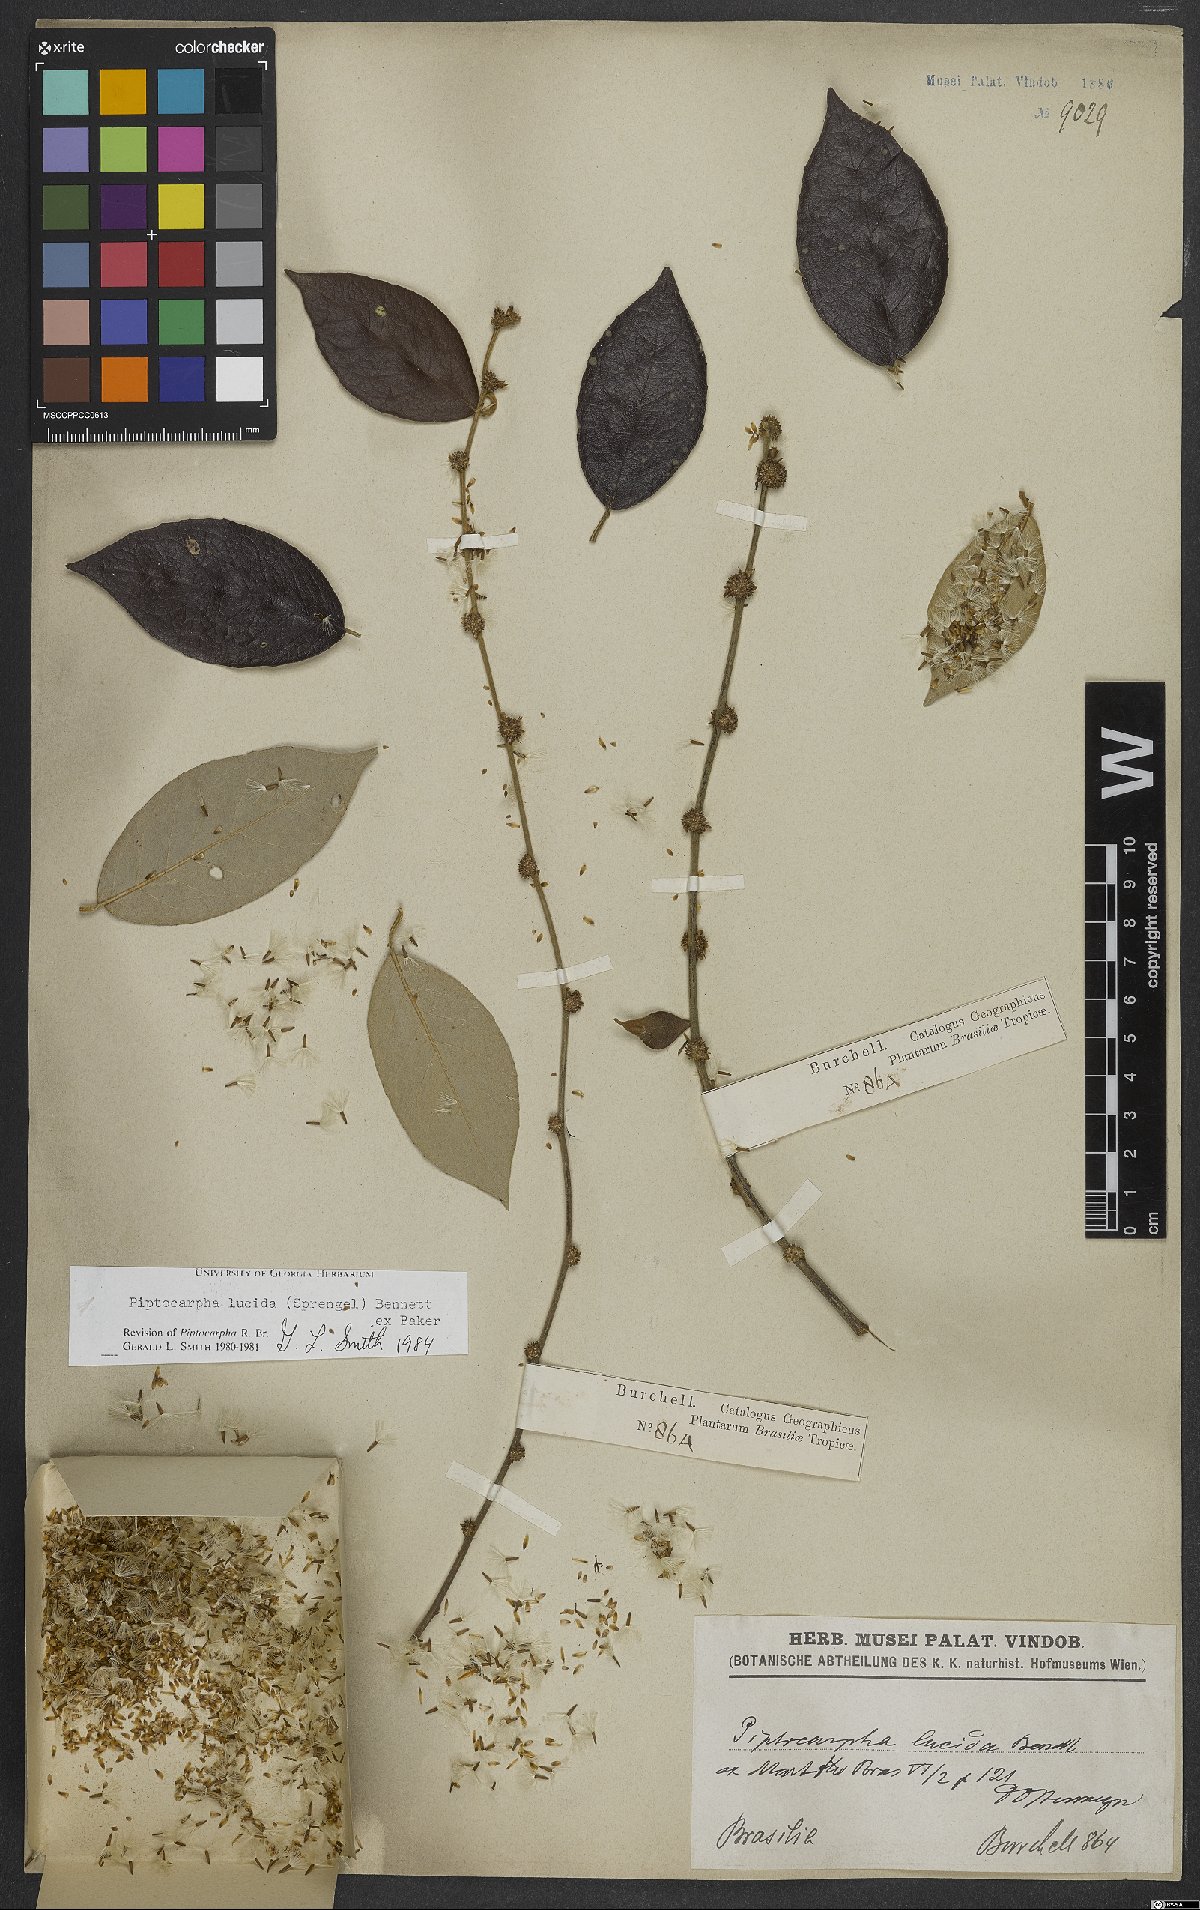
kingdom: Plantae
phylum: Tracheophyta
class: Magnoliopsida
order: Asterales
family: Asteraceae
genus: Piptocarpha
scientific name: Piptocarpha lucida
